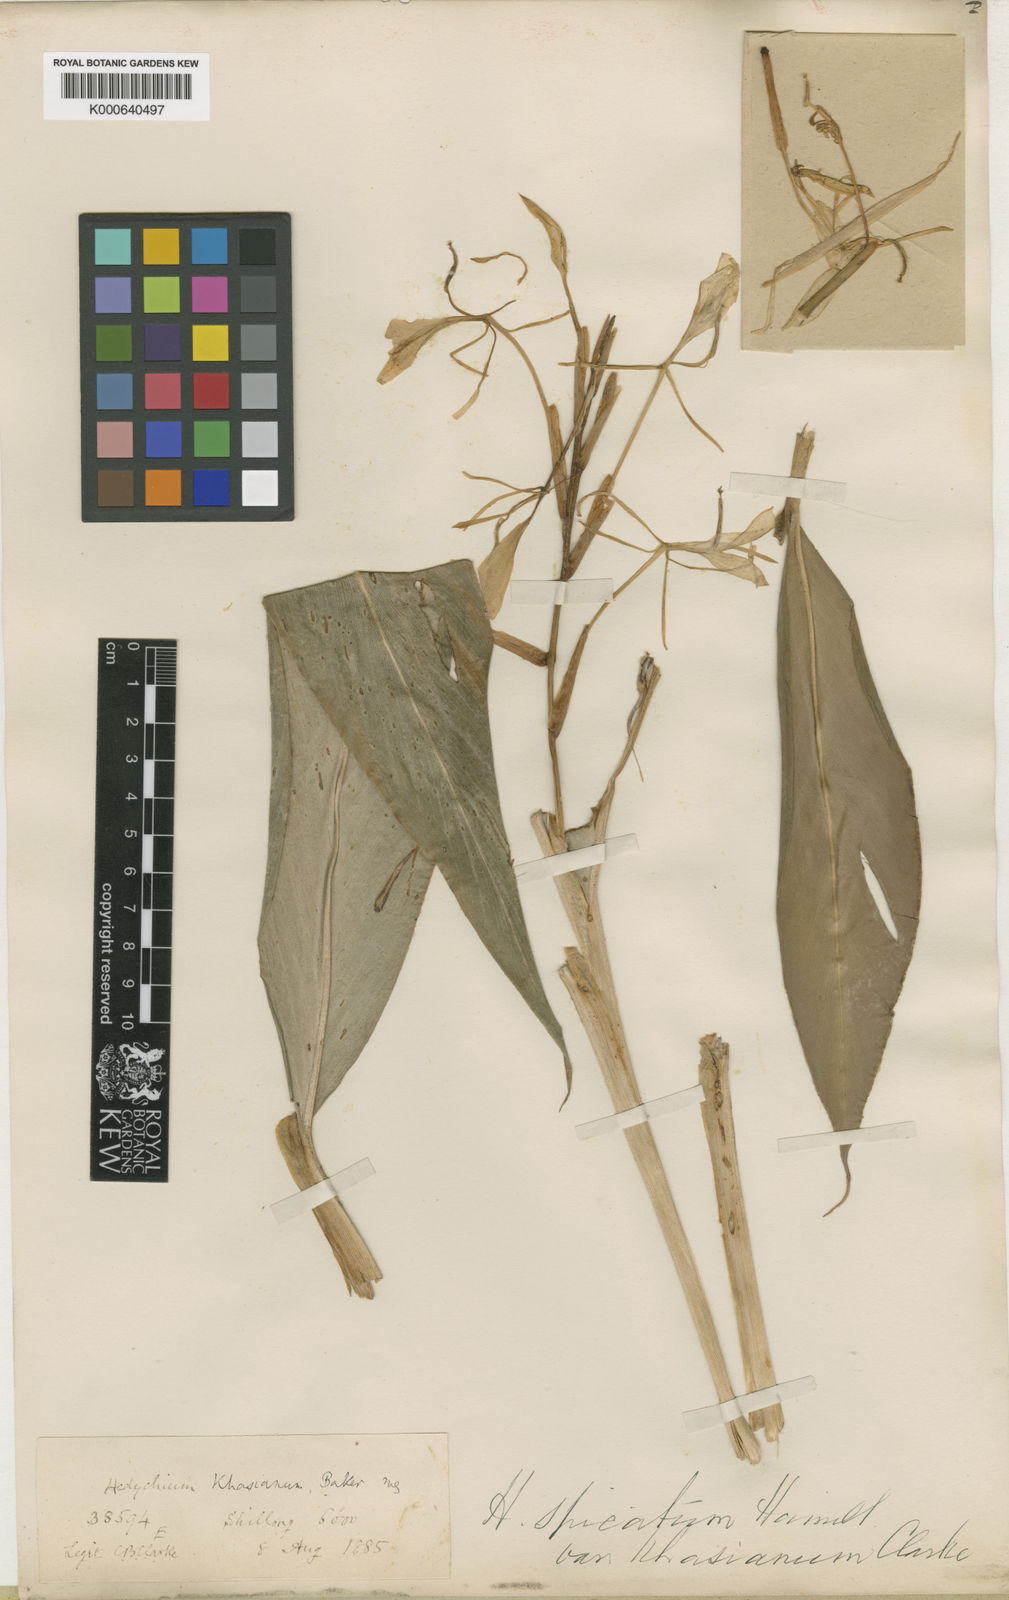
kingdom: Plantae
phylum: Tracheophyta
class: Liliopsida
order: Zingiberales
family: Zingiberaceae
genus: Hedychium
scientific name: Hedychium spicatum
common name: Spiked ginger-lily
